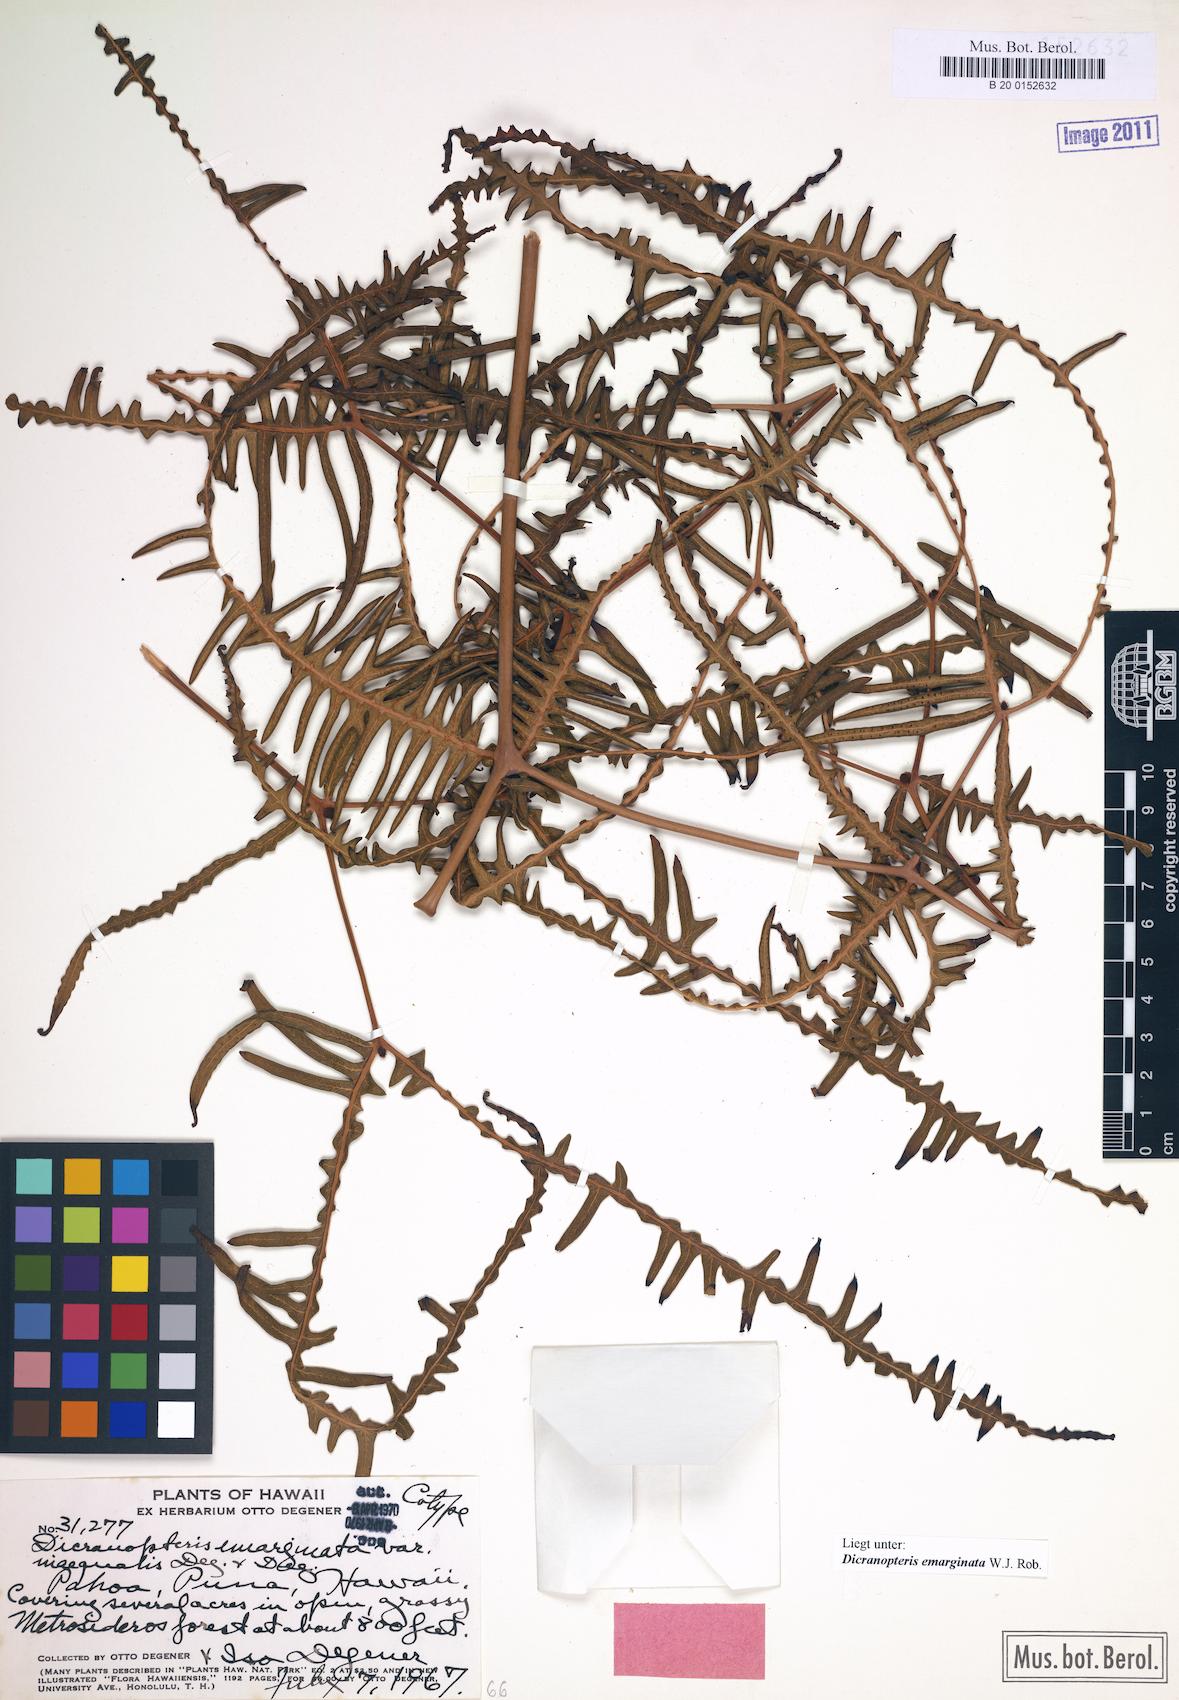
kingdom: Plantae
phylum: Tracheophyta
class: Polypodiopsida
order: Gleicheniales
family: Gleicheniaceae
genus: Dicranopteris
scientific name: Dicranopteris linearis
